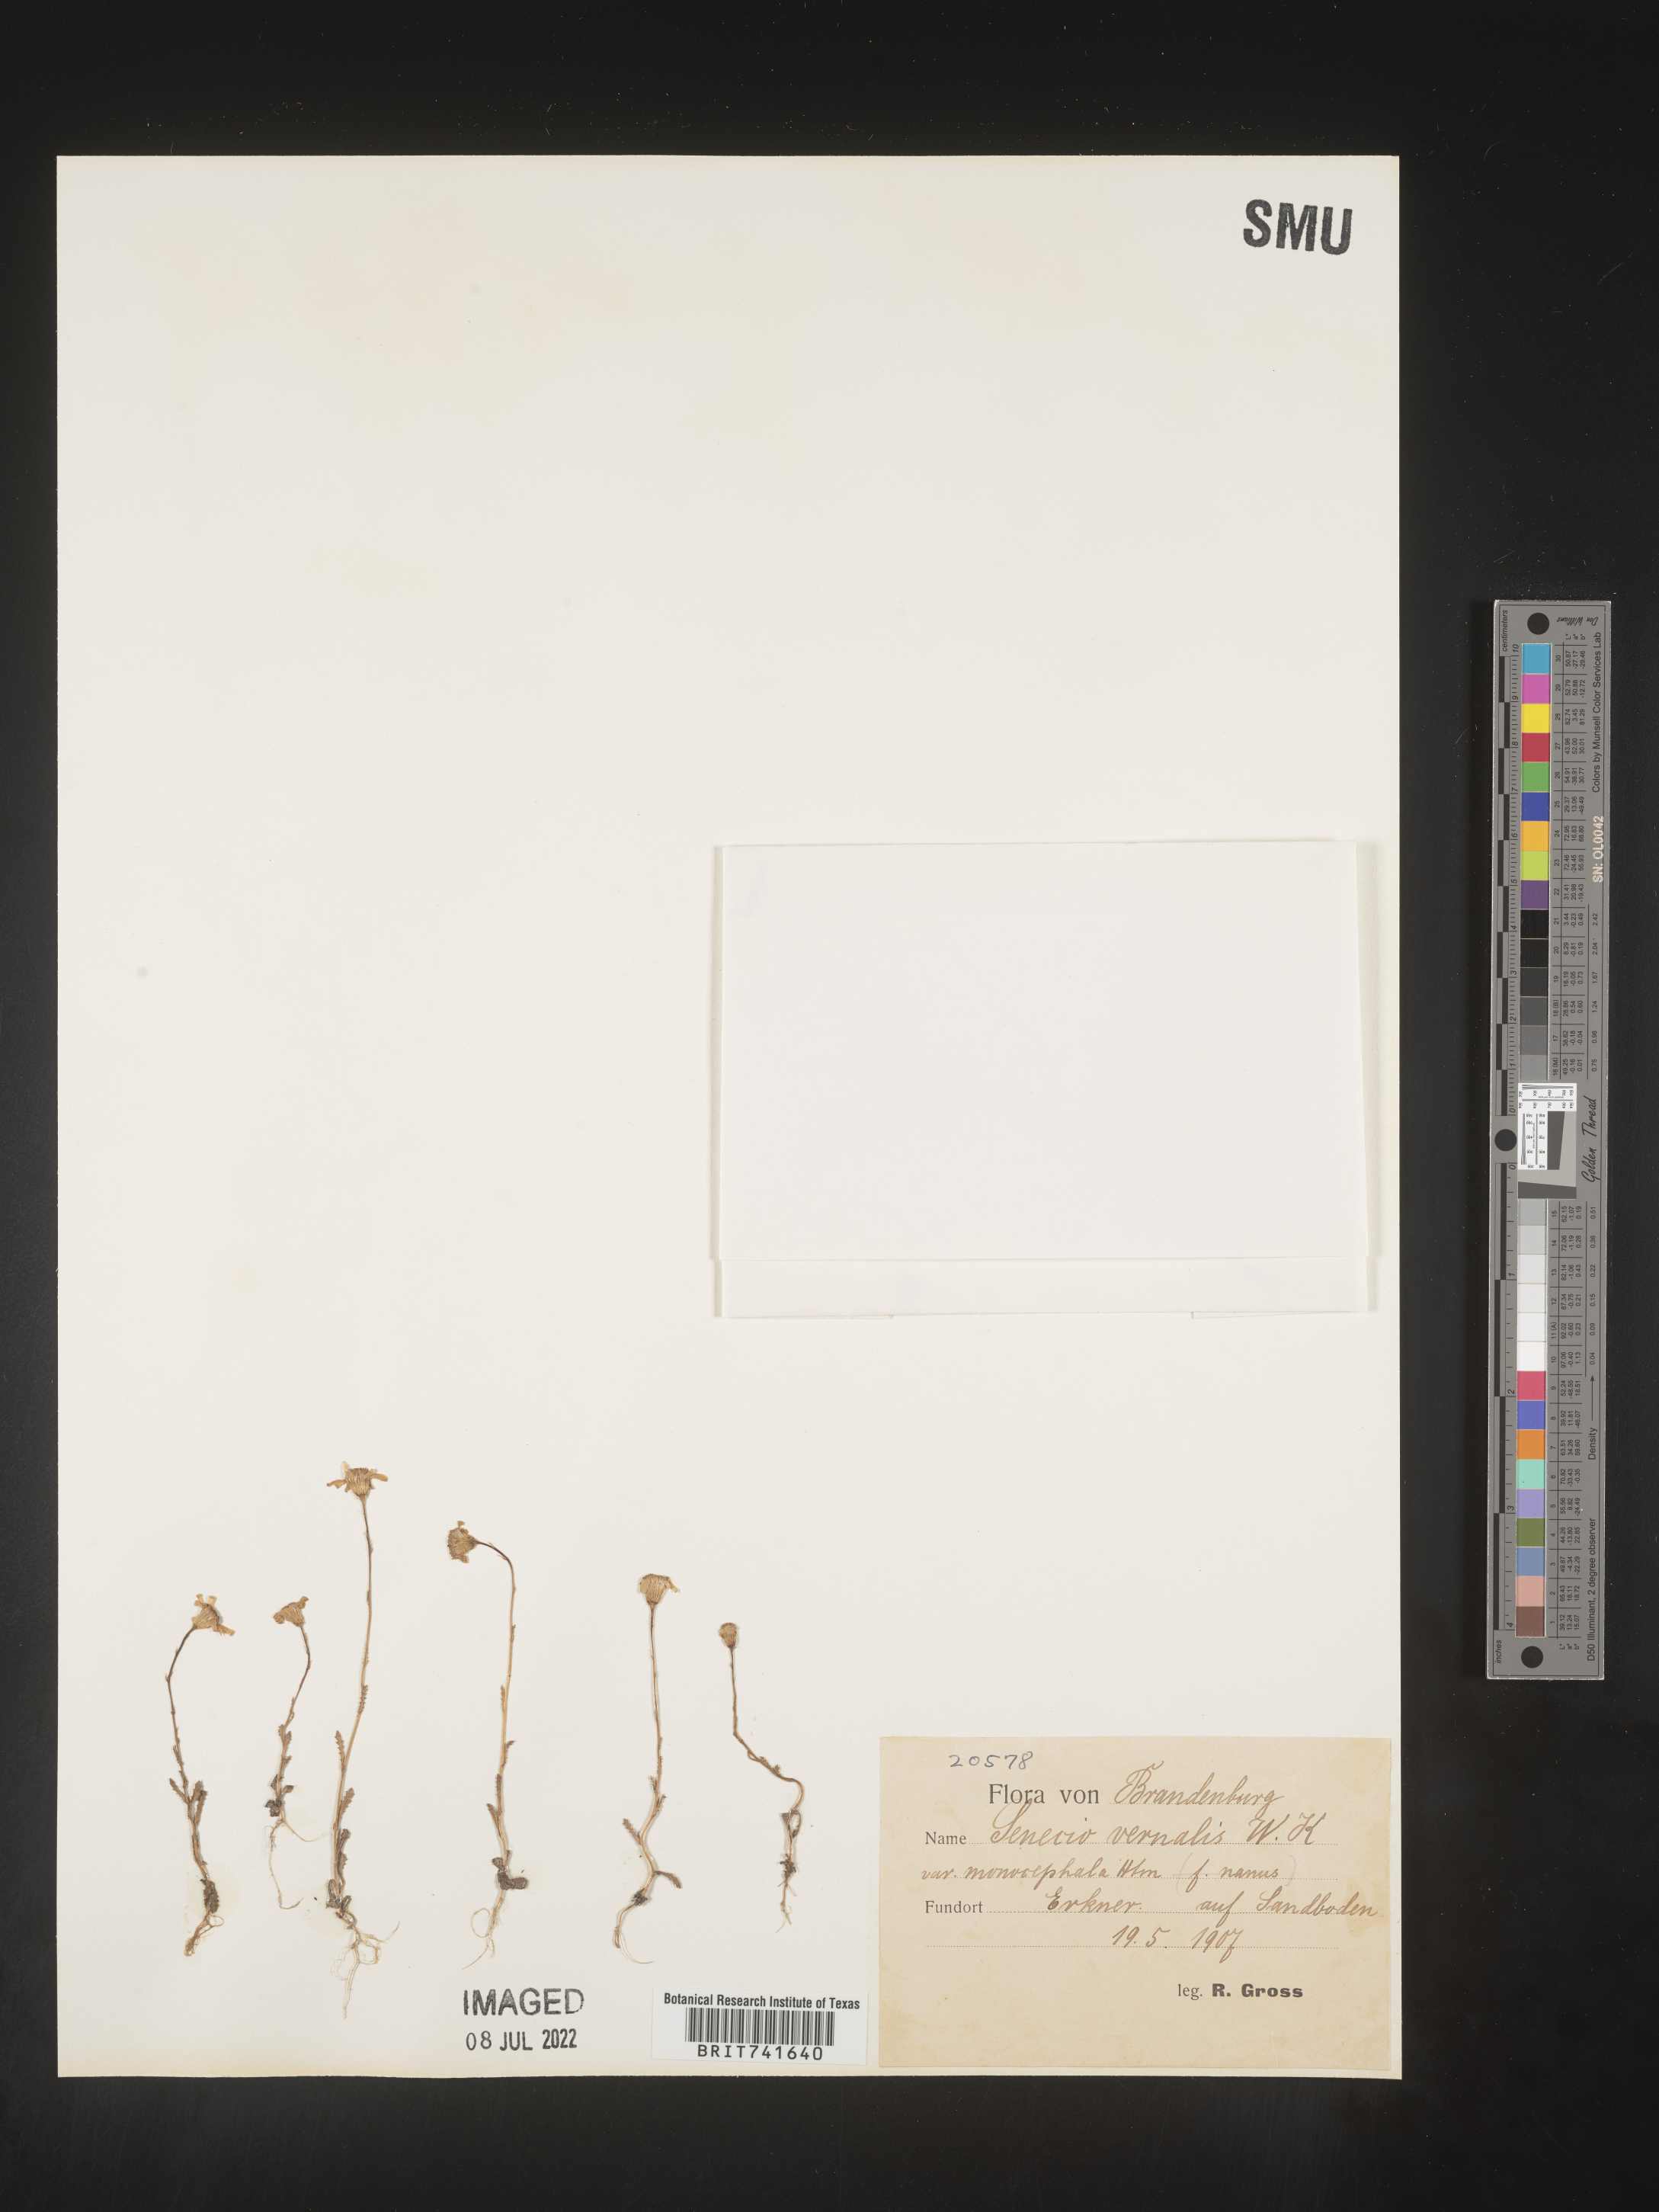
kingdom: Plantae
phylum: Tracheophyta
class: Magnoliopsida
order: Asterales
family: Asteraceae
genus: Senecio
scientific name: Senecio vernalis
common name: Eastern groundsel
